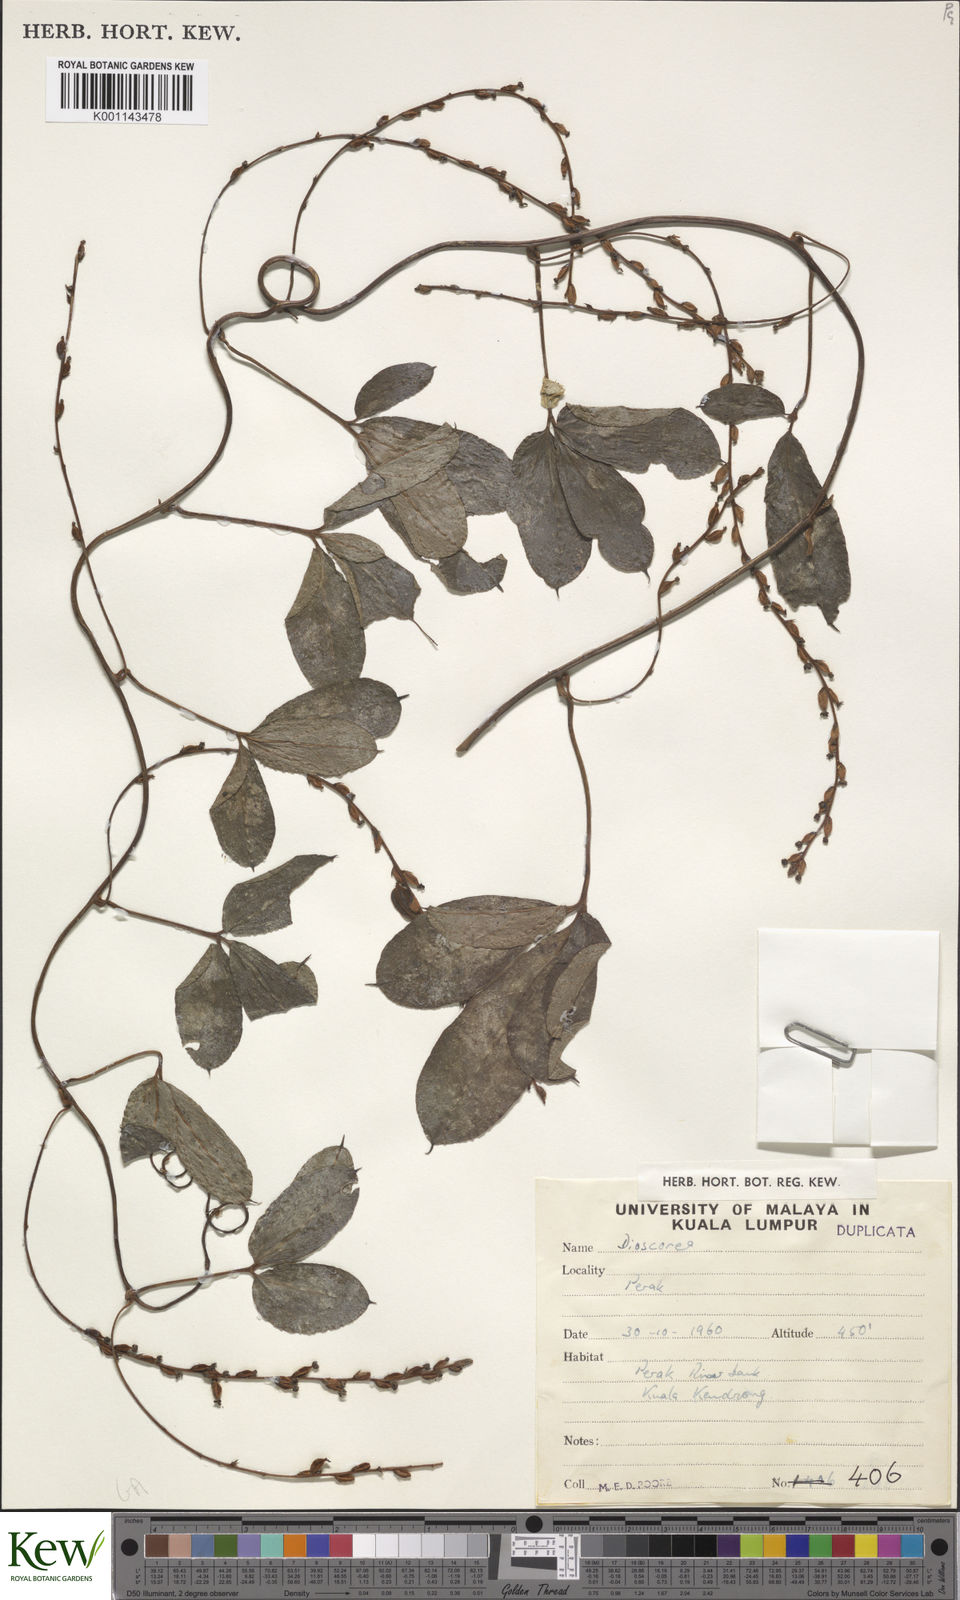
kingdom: Plantae
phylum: Tracheophyta
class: Liliopsida
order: Dioscoreales
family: Dioscoreaceae
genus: Dioscorea
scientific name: Dioscorea
